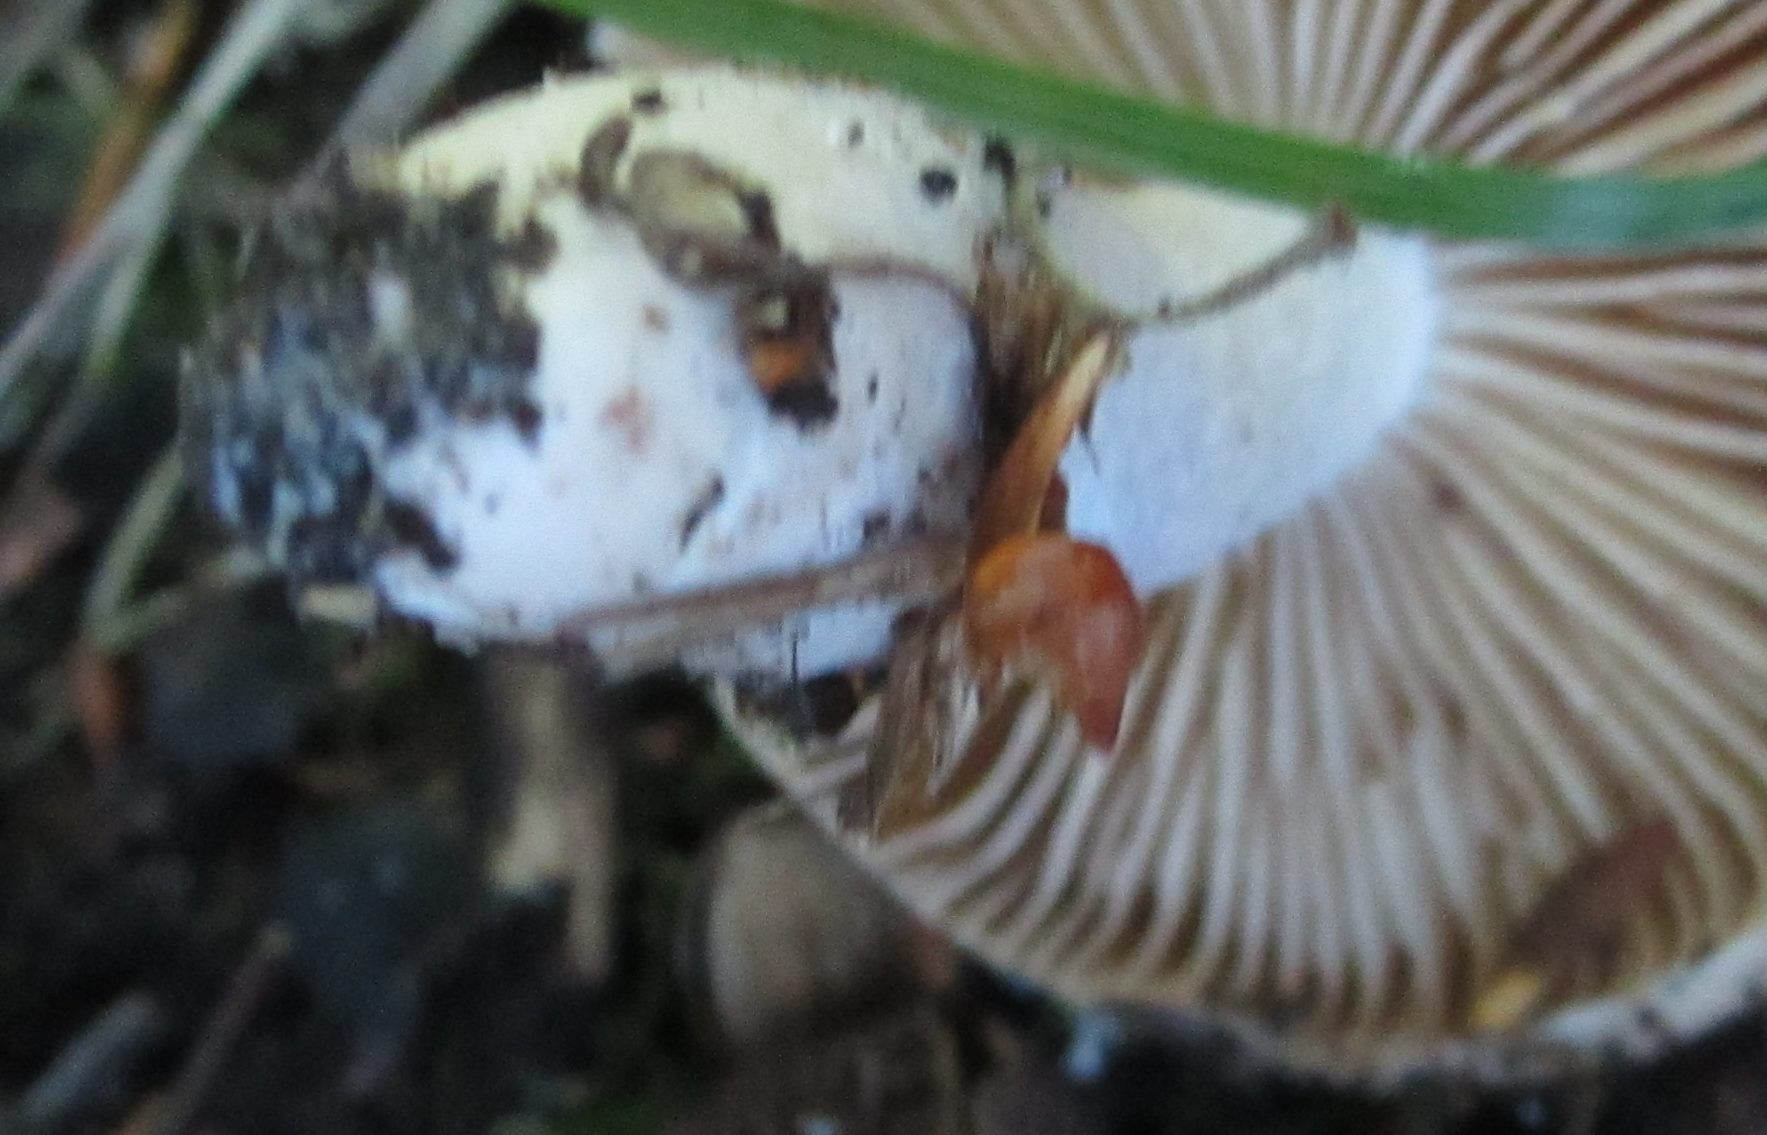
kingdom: Fungi
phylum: Basidiomycota
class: Agaricomycetes
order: Agaricales
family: Cortinariaceae
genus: Cortinarius
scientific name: Cortinarius elatior
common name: høj slørhat
